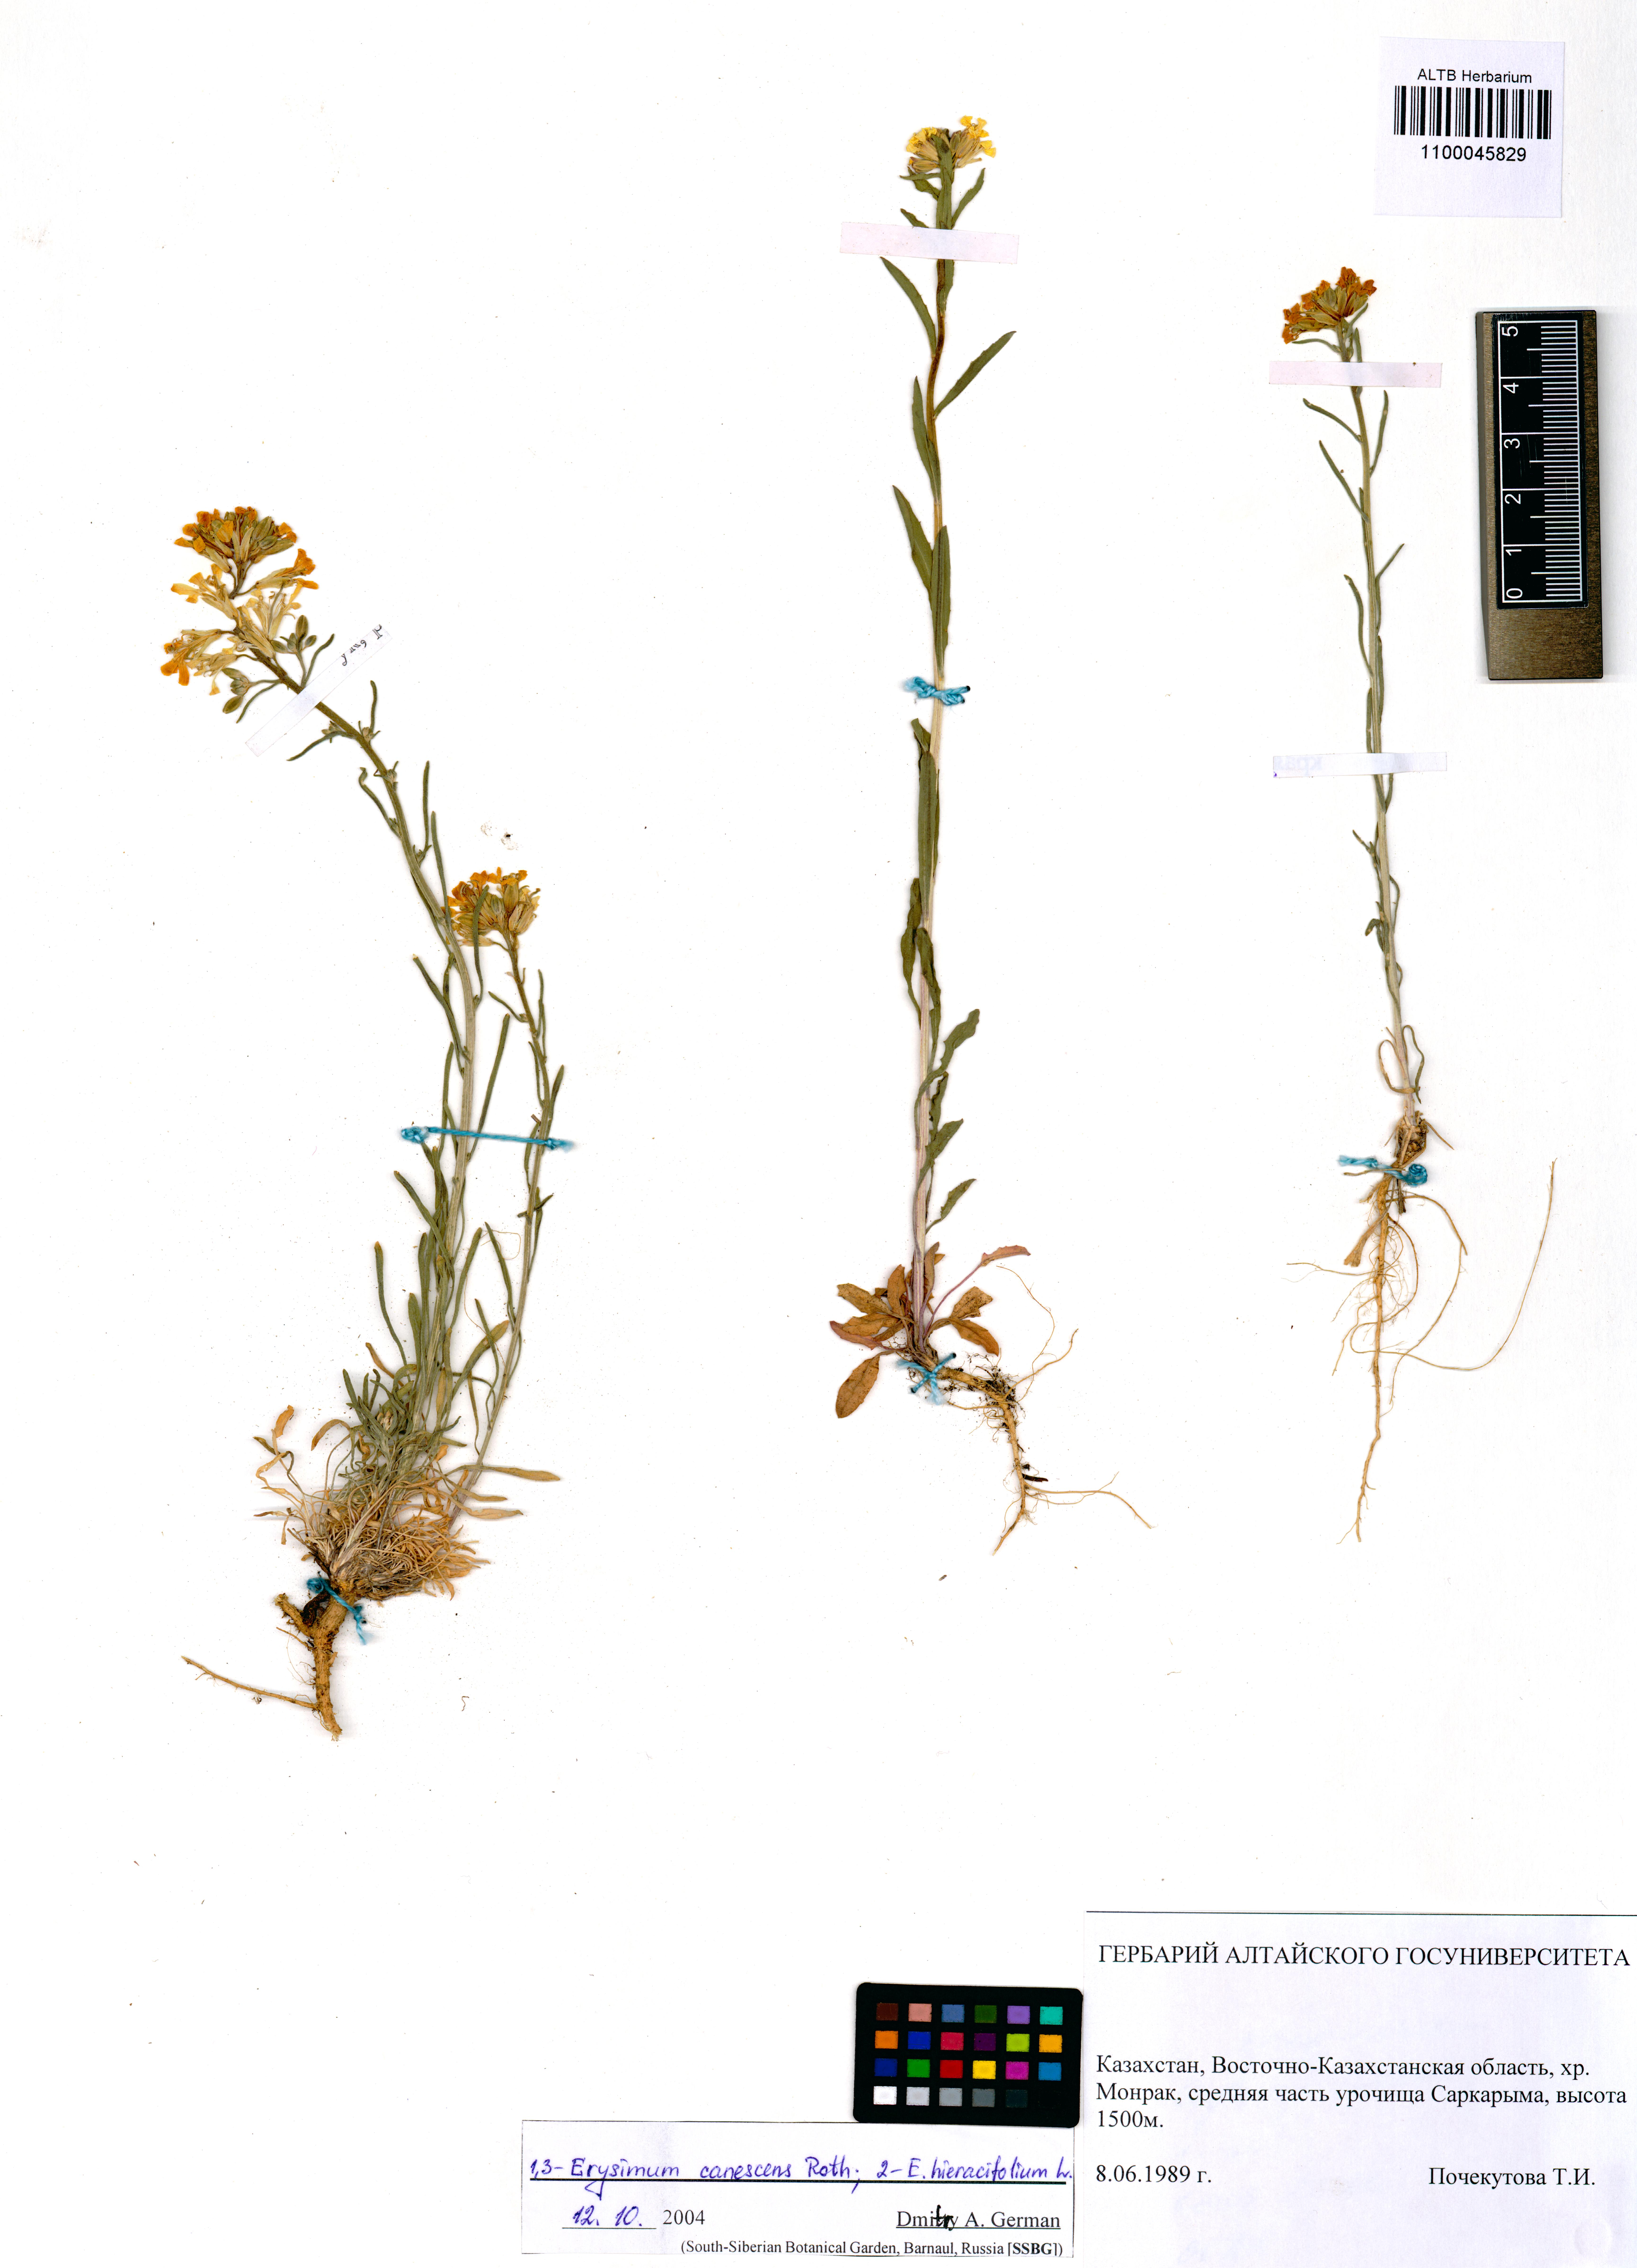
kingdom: Plantae
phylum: Tracheophyta
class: Magnoliopsida
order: Brassicales
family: Brassicaceae
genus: Erysimum
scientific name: Erysimum canescens
